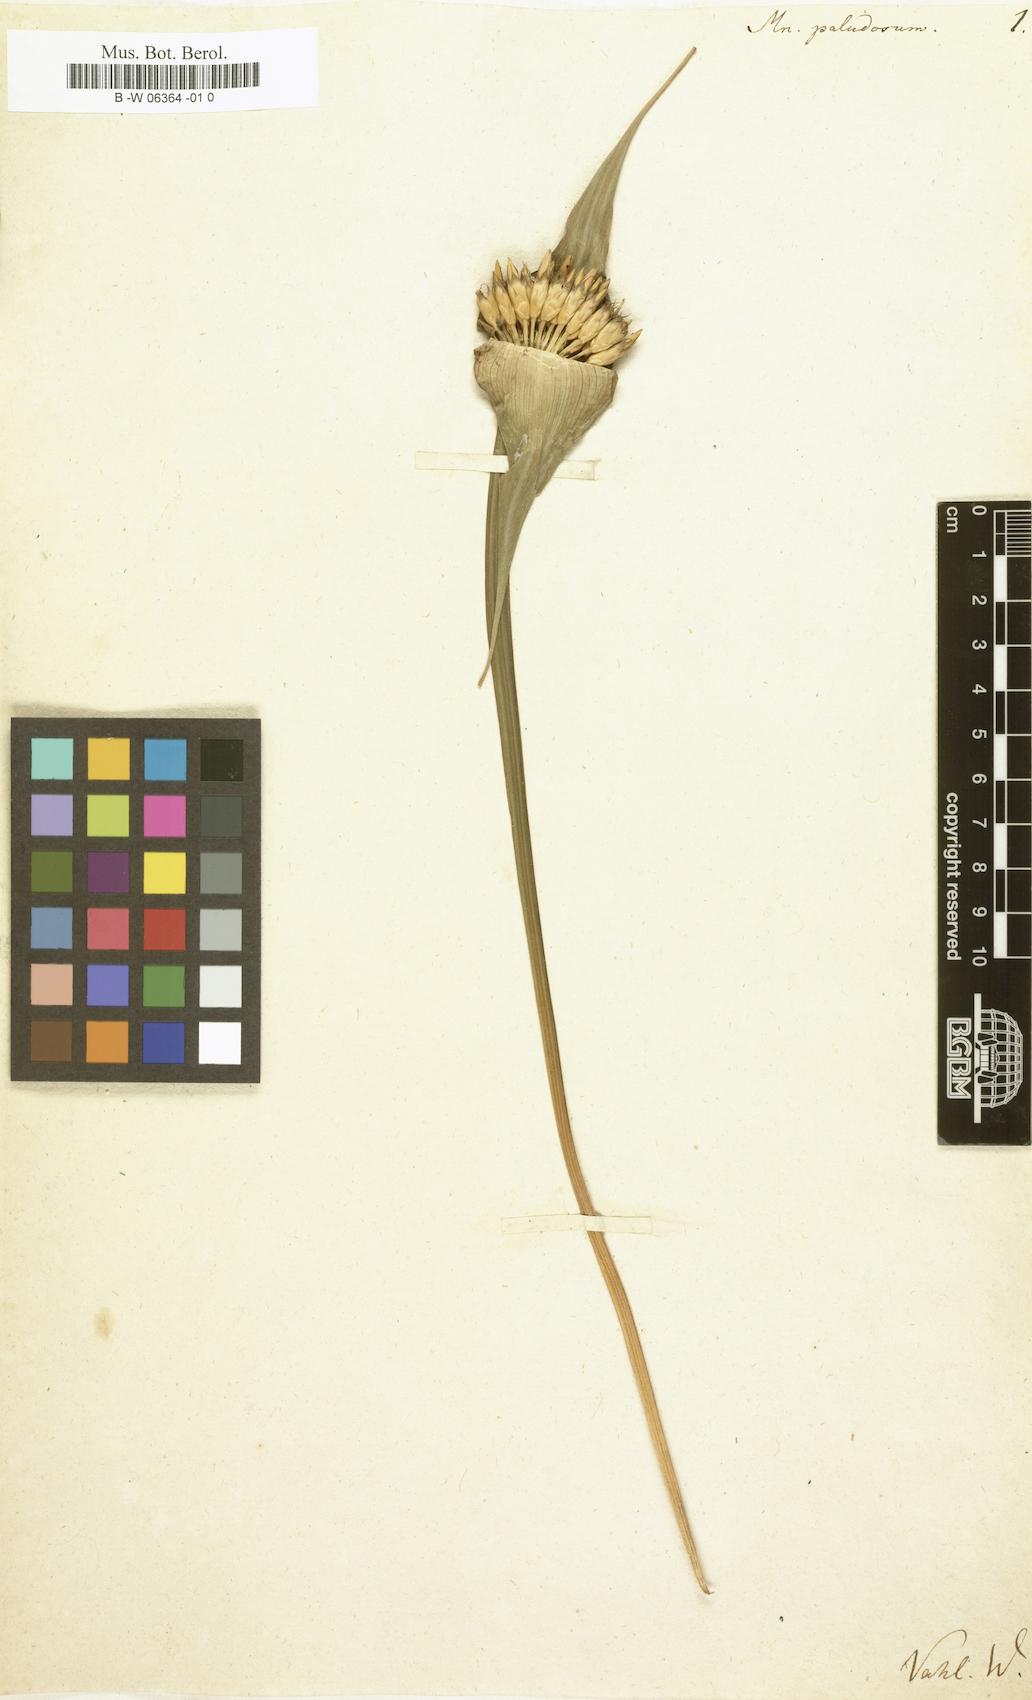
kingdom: Plantae
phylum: Tracheophyta
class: Liliopsida
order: Poales
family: Rapateaceae
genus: Rapatea
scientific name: Rapatea
